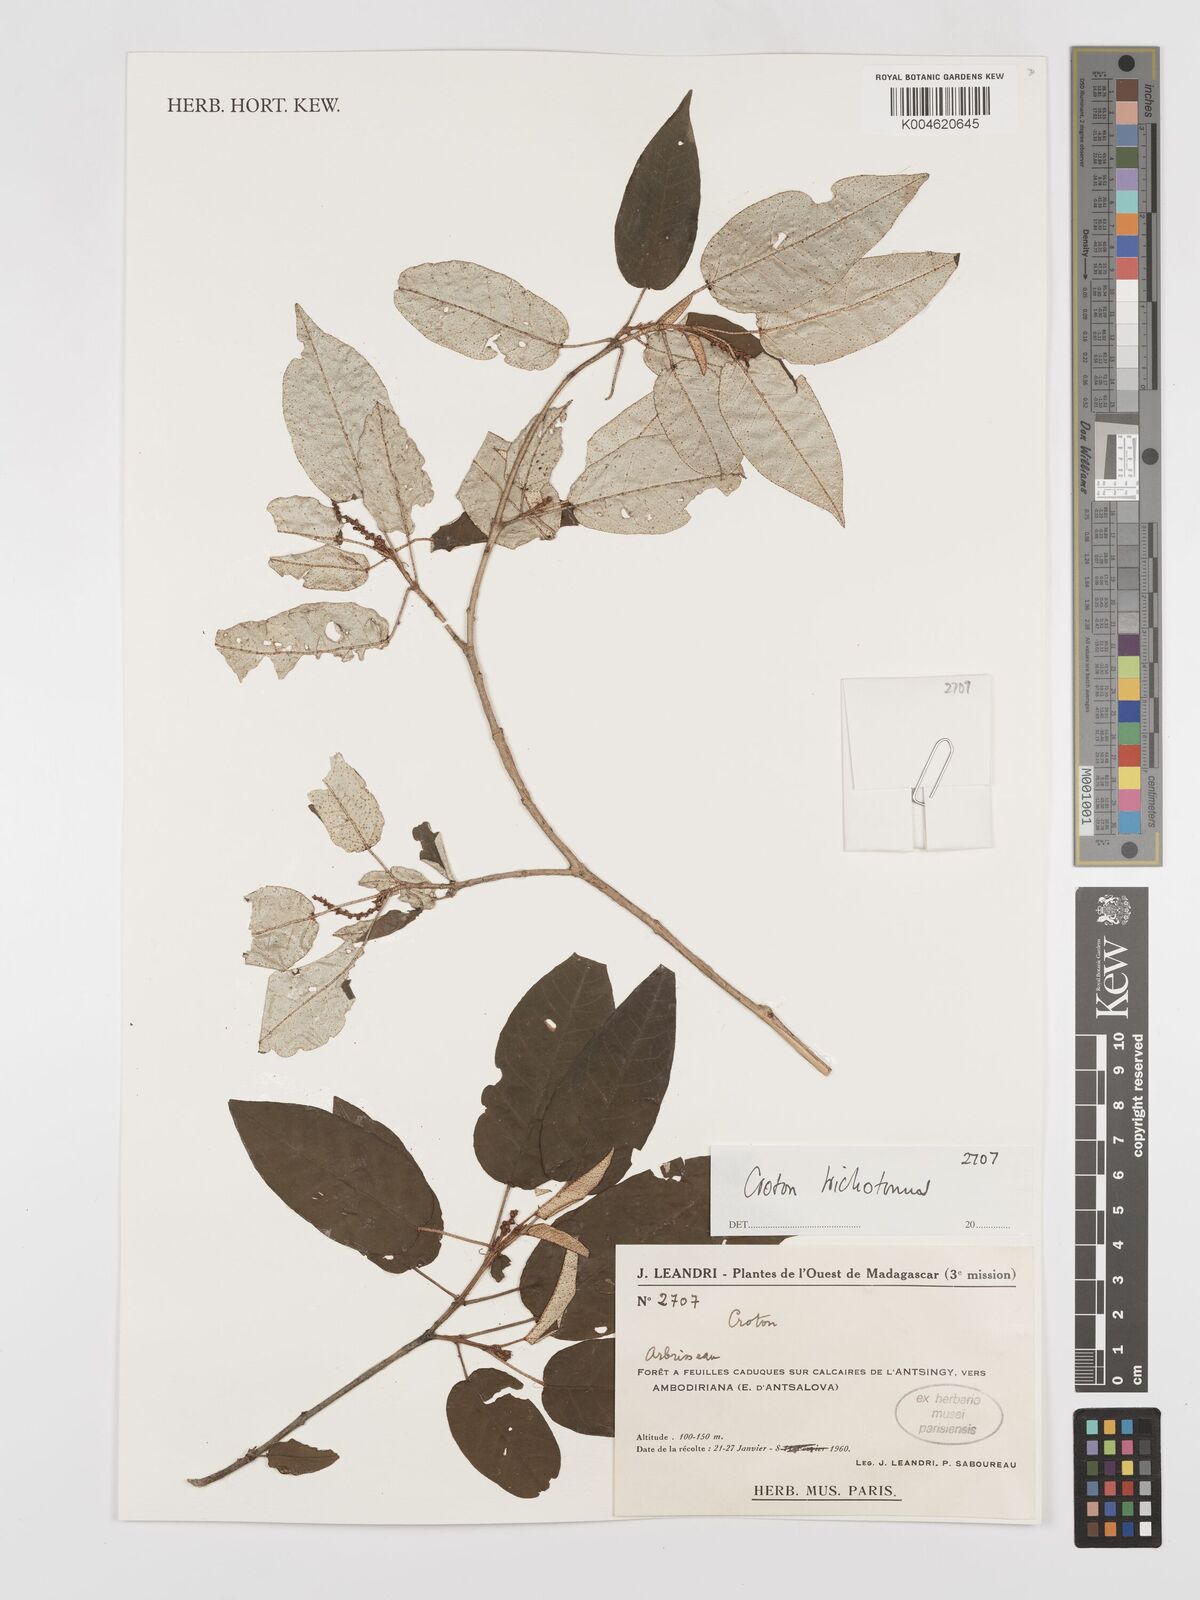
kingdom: Plantae
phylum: Tracheophyta
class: Magnoliopsida
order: Malpighiales
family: Euphorbiaceae
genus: Croton
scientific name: Croton trichotomus
